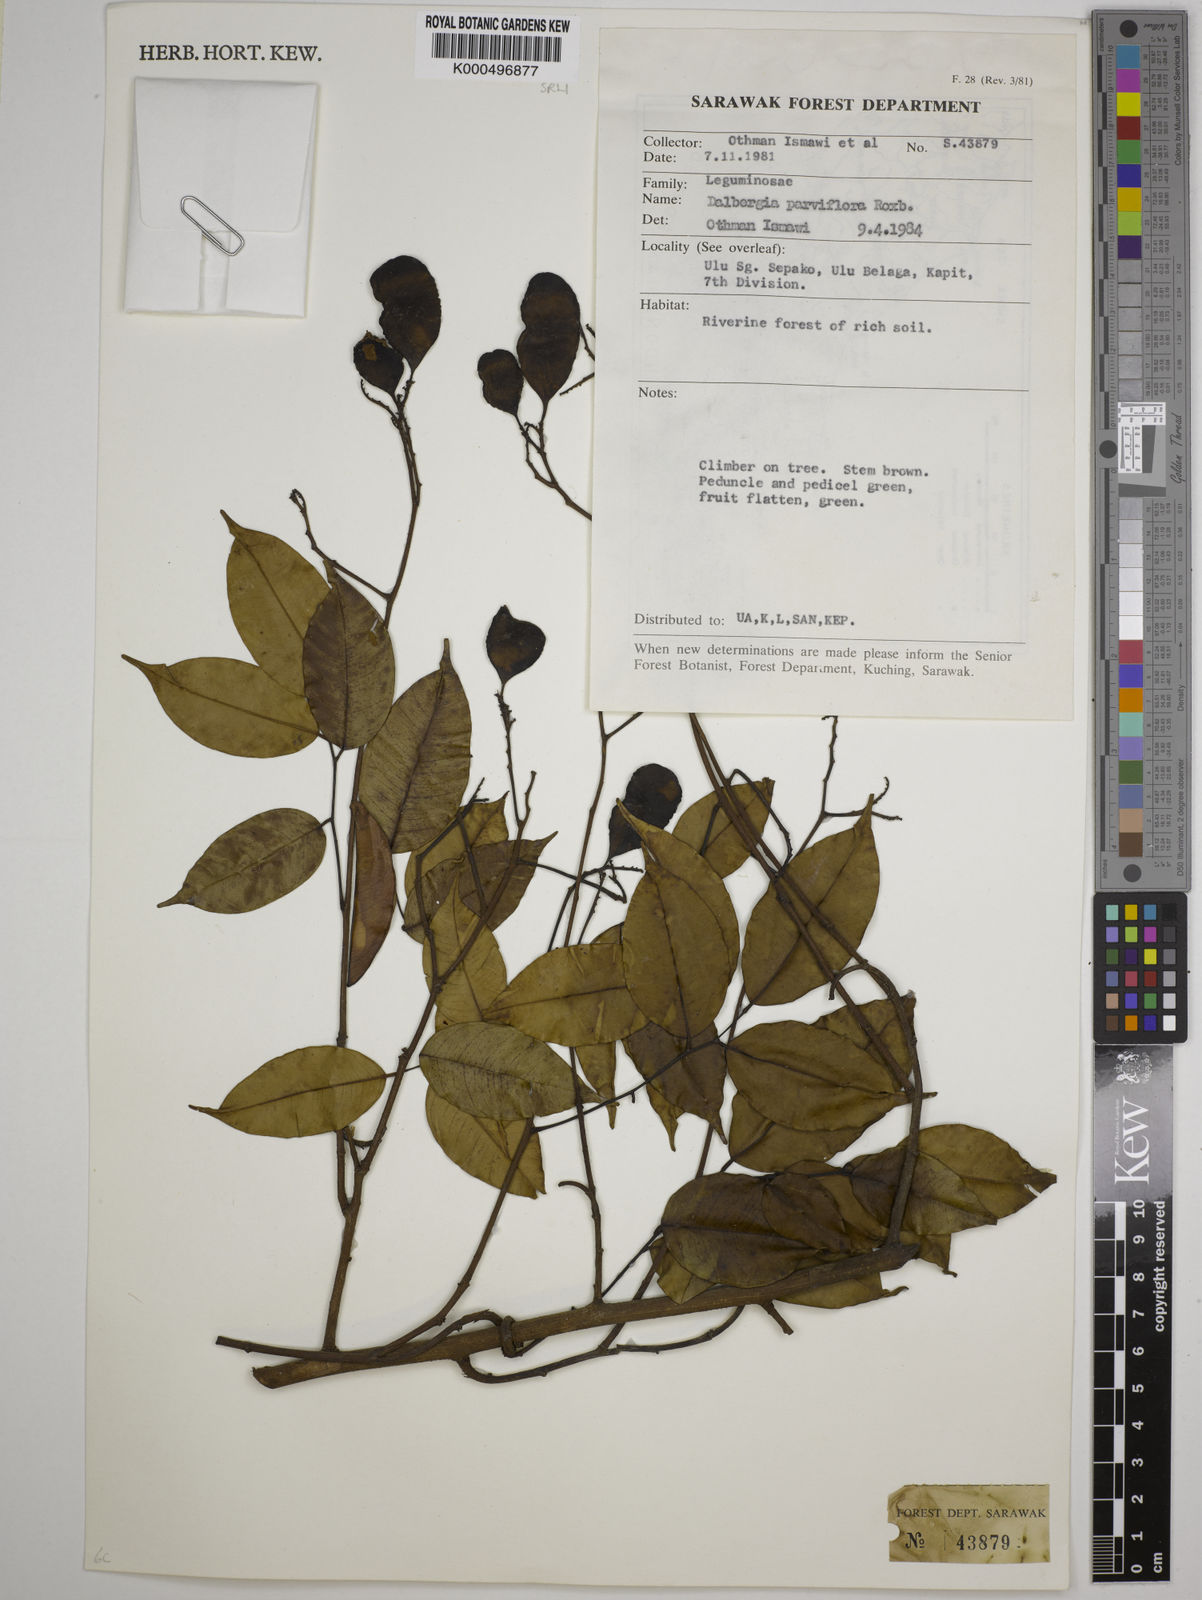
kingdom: Plantae
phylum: Tracheophyta
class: Magnoliopsida
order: Fabales
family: Fabaceae
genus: Dalbergia
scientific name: Dalbergia parviflora
